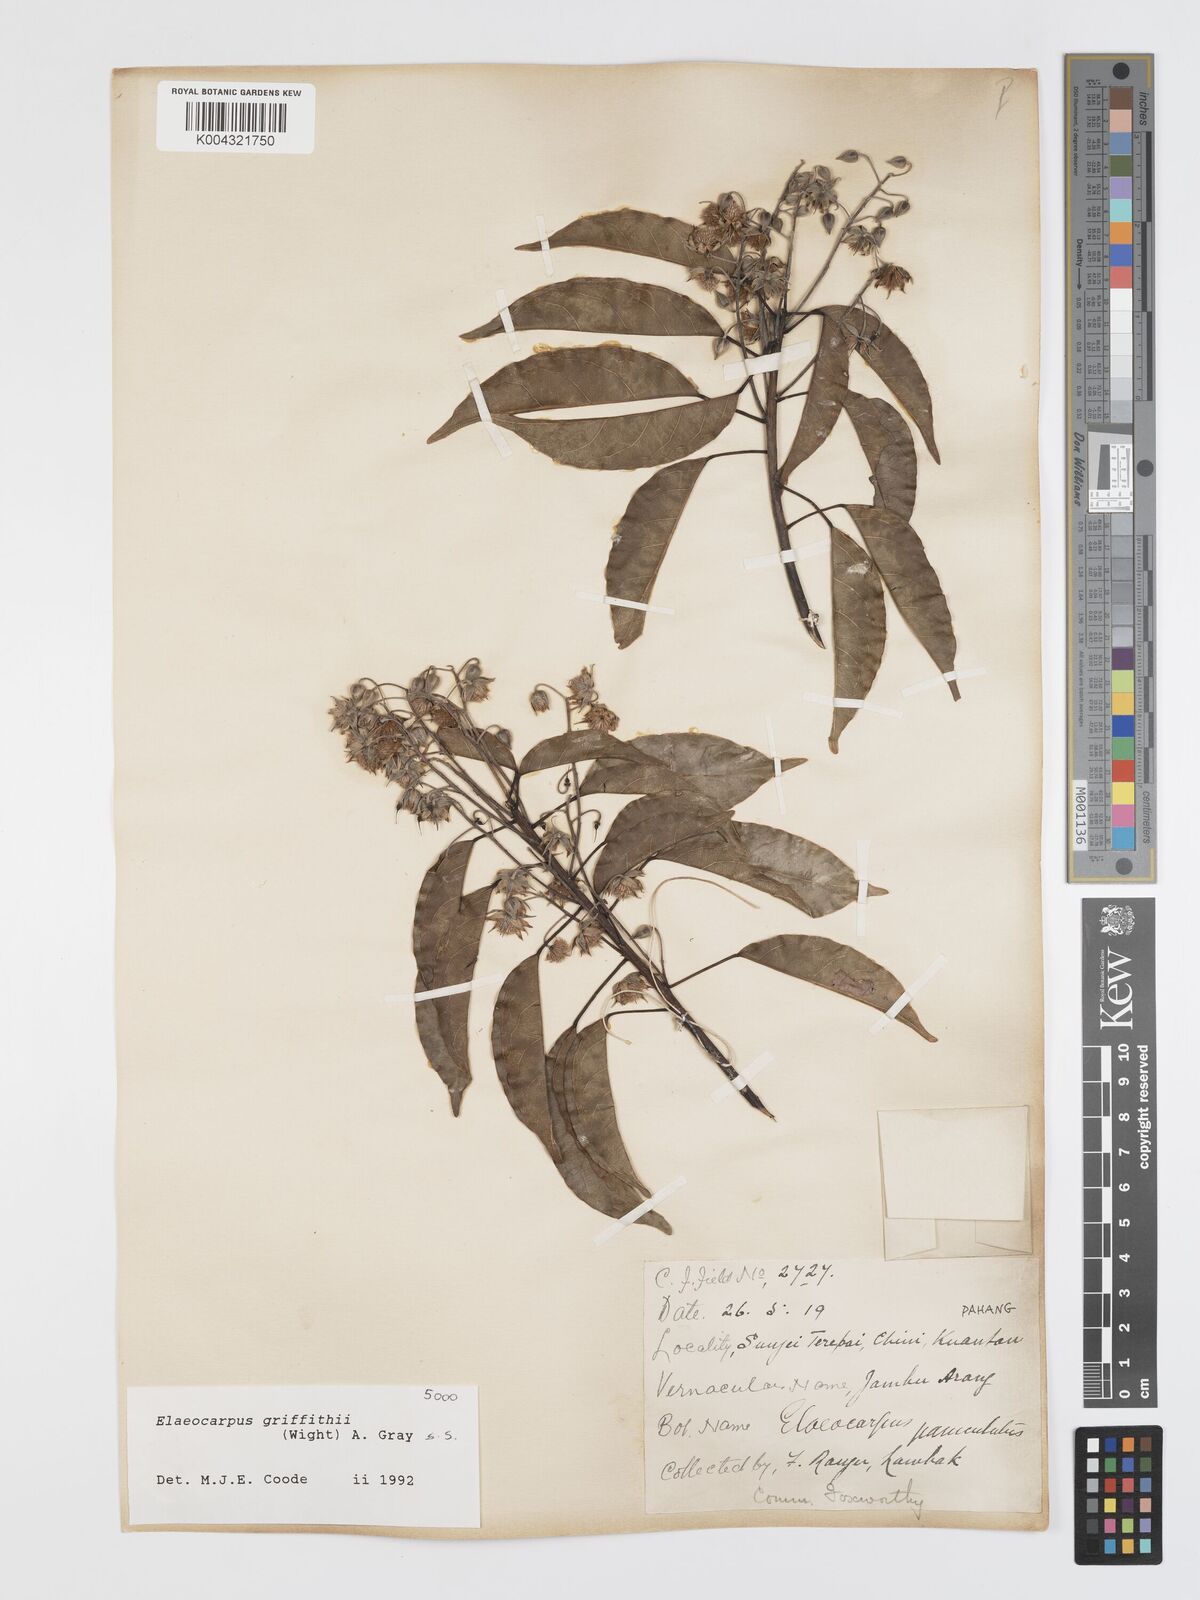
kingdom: Plantae
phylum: Tracheophyta
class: Magnoliopsida
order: Oxalidales
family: Elaeocarpaceae
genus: Elaeocarpus
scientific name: Elaeocarpus griffithii
